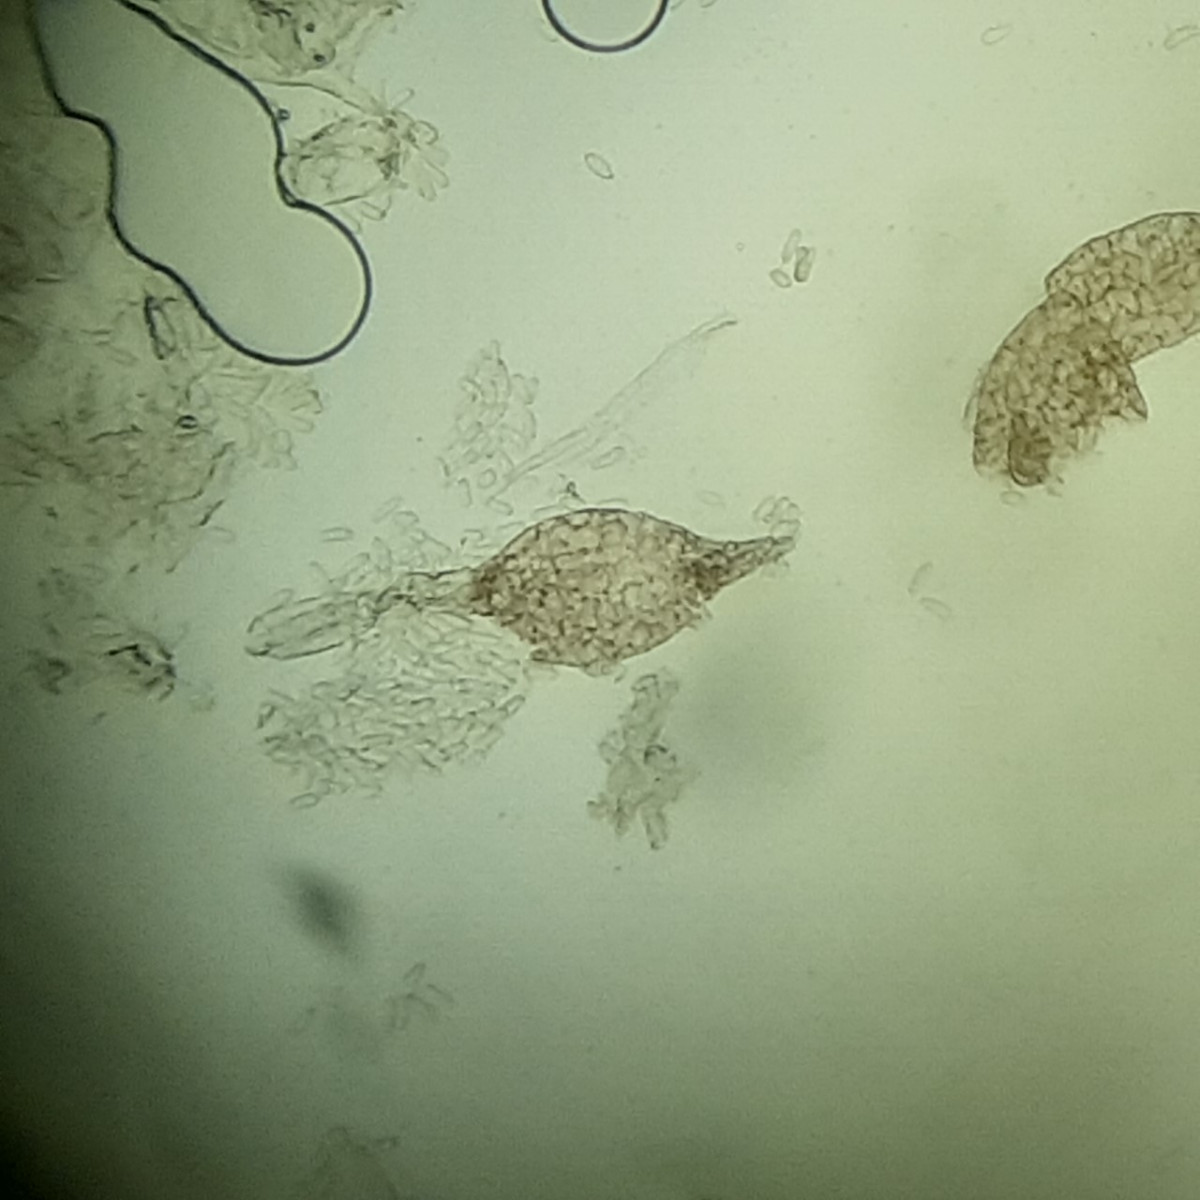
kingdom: Fungi
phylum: Ascomycota
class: Dothideomycetes
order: Pleosporales
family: Phaeosphaeriaceae
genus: Ampelomyces
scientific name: Ampelomyces quisqualis
